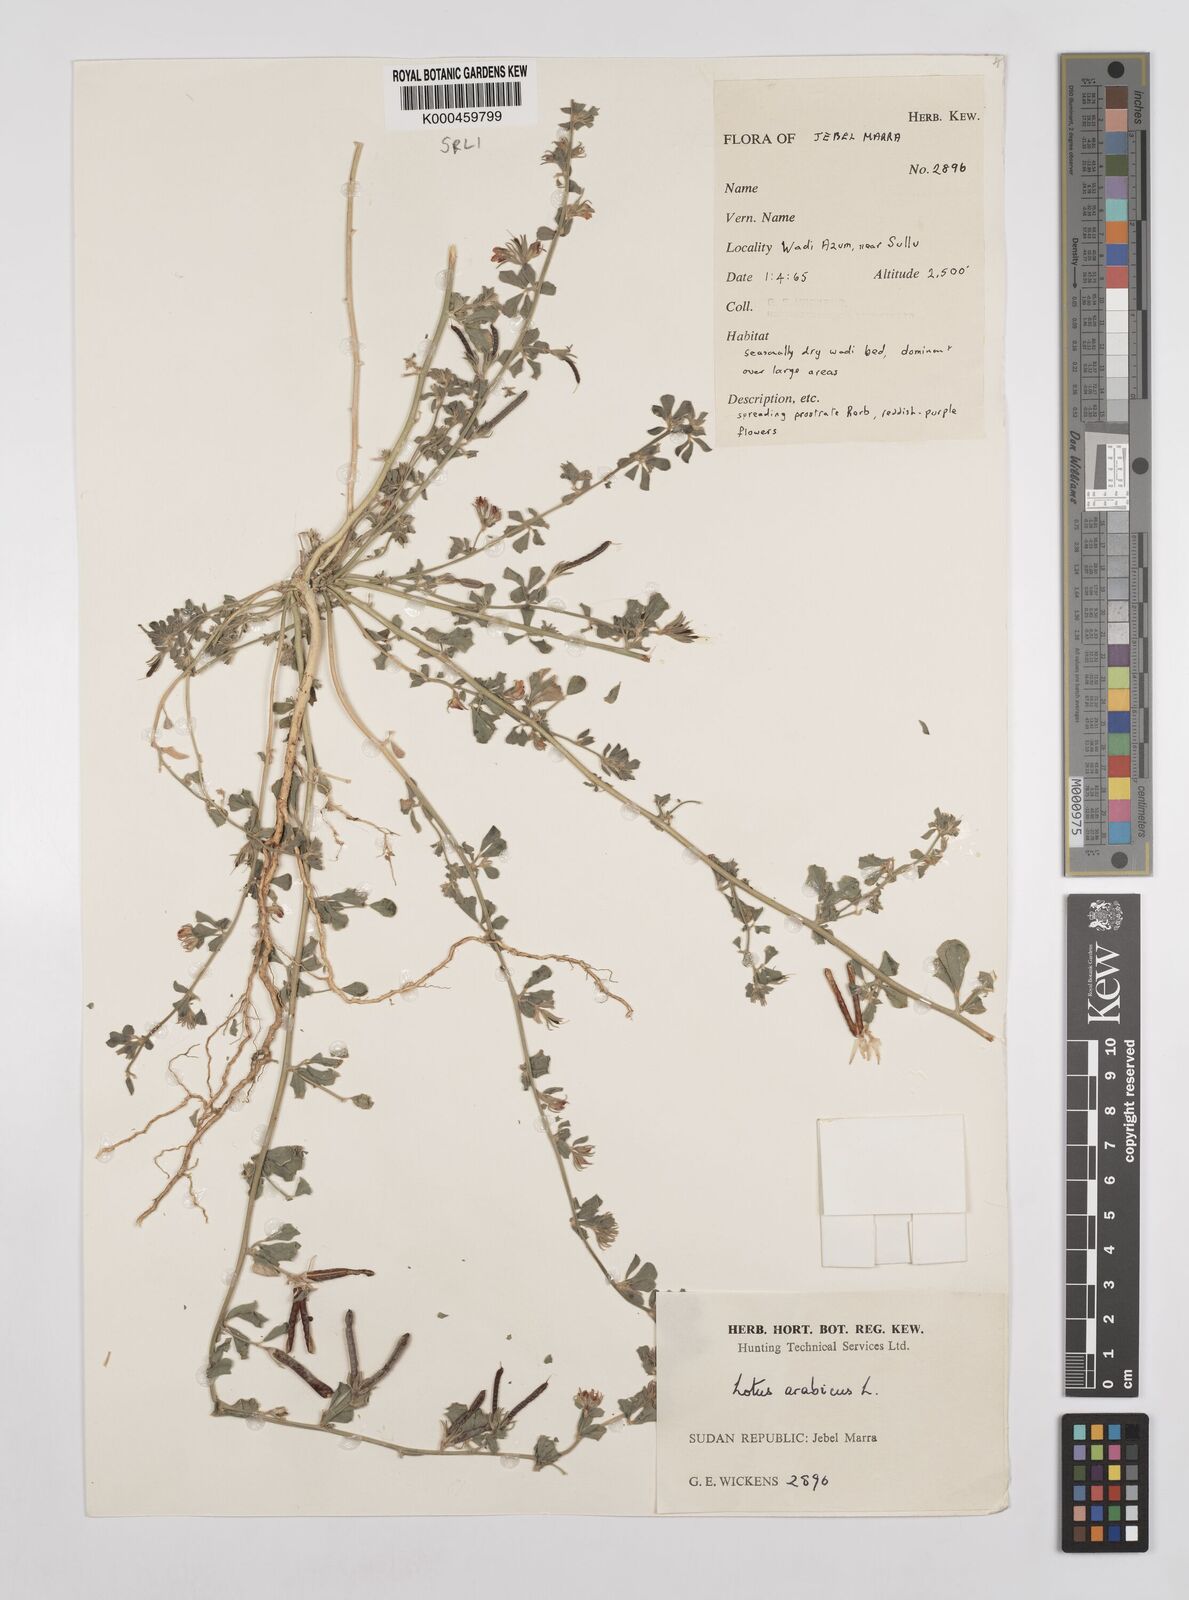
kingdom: Plantae
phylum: Tracheophyta
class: Magnoliopsida
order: Fabales
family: Fabaceae
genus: Lotus
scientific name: Lotus arabicus
